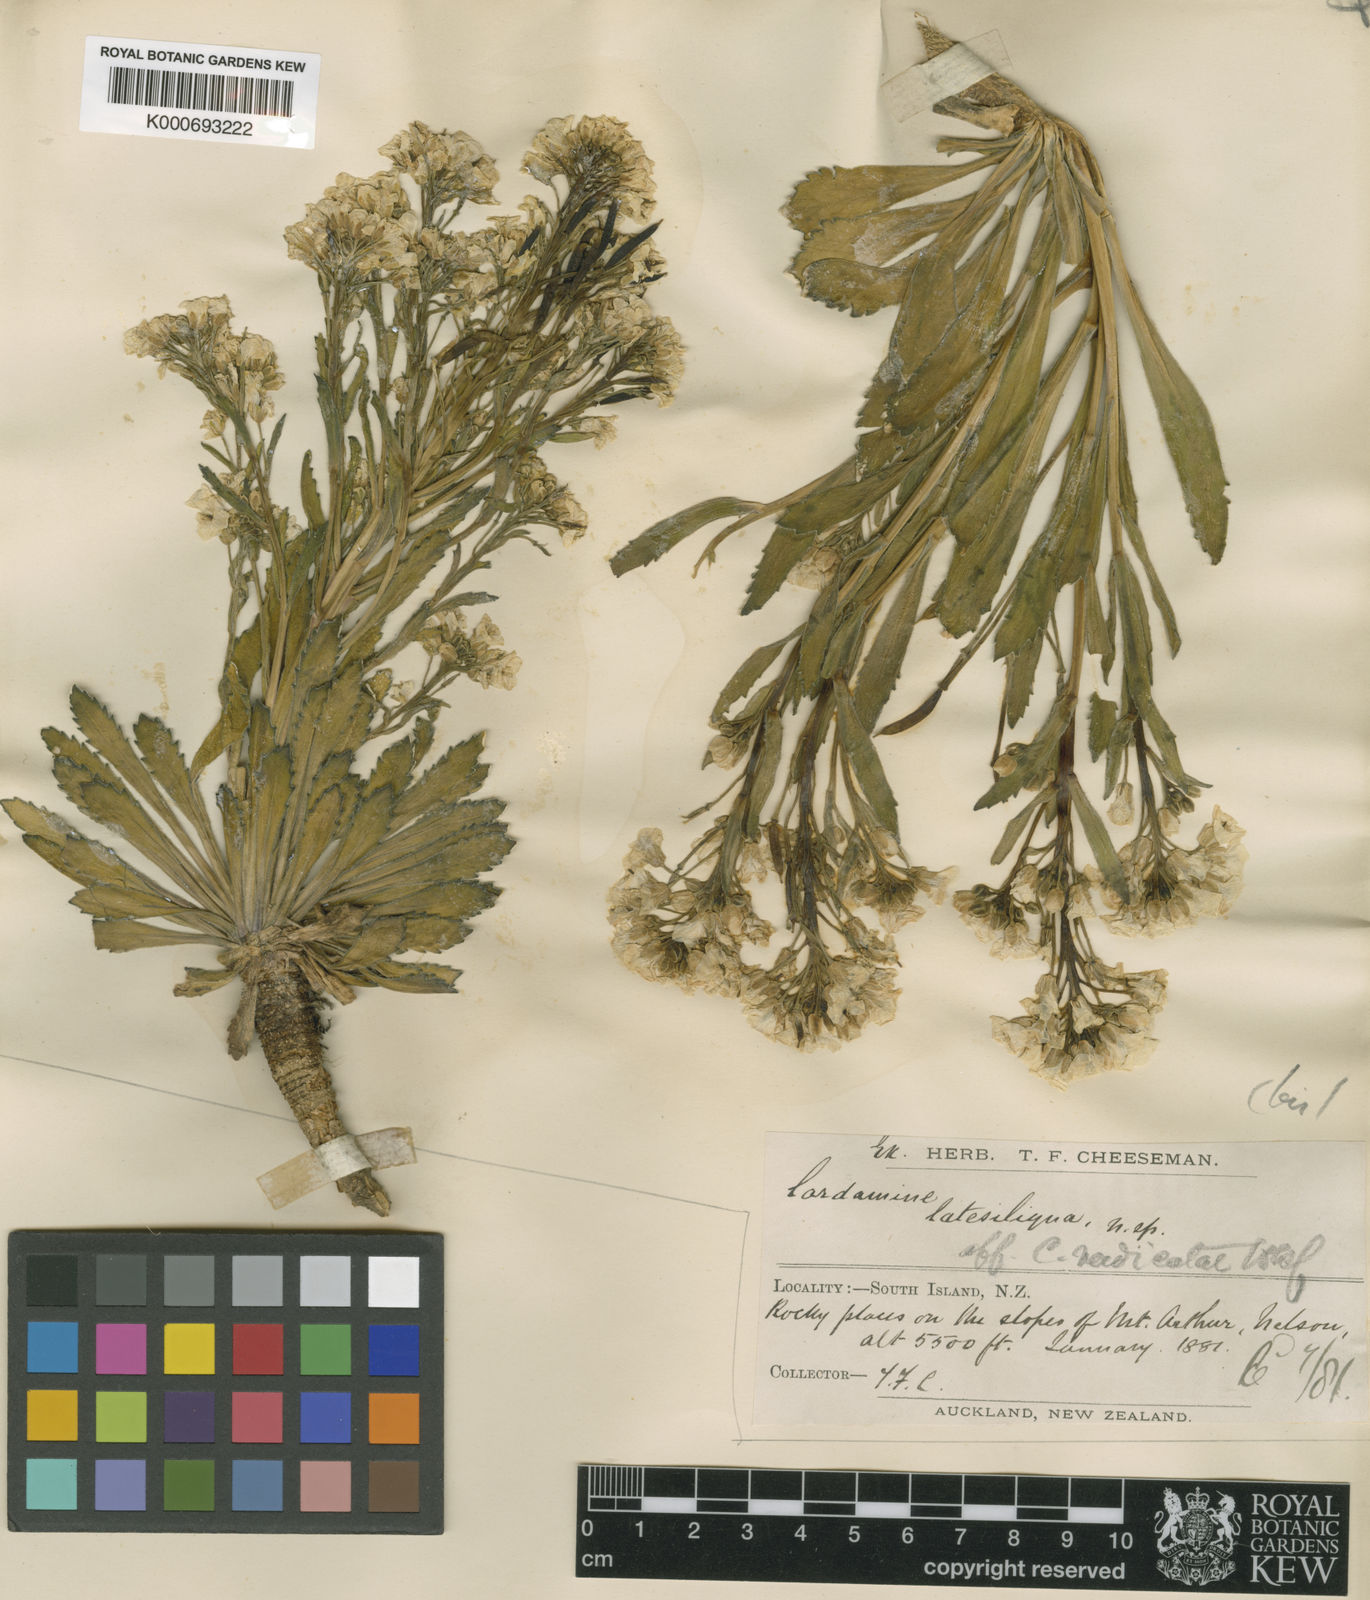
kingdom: Plantae
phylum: Tracheophyta
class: Magnoliopsida
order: Brassicales
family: Brassicaceae
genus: Pachycladon
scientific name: Pachycladon
